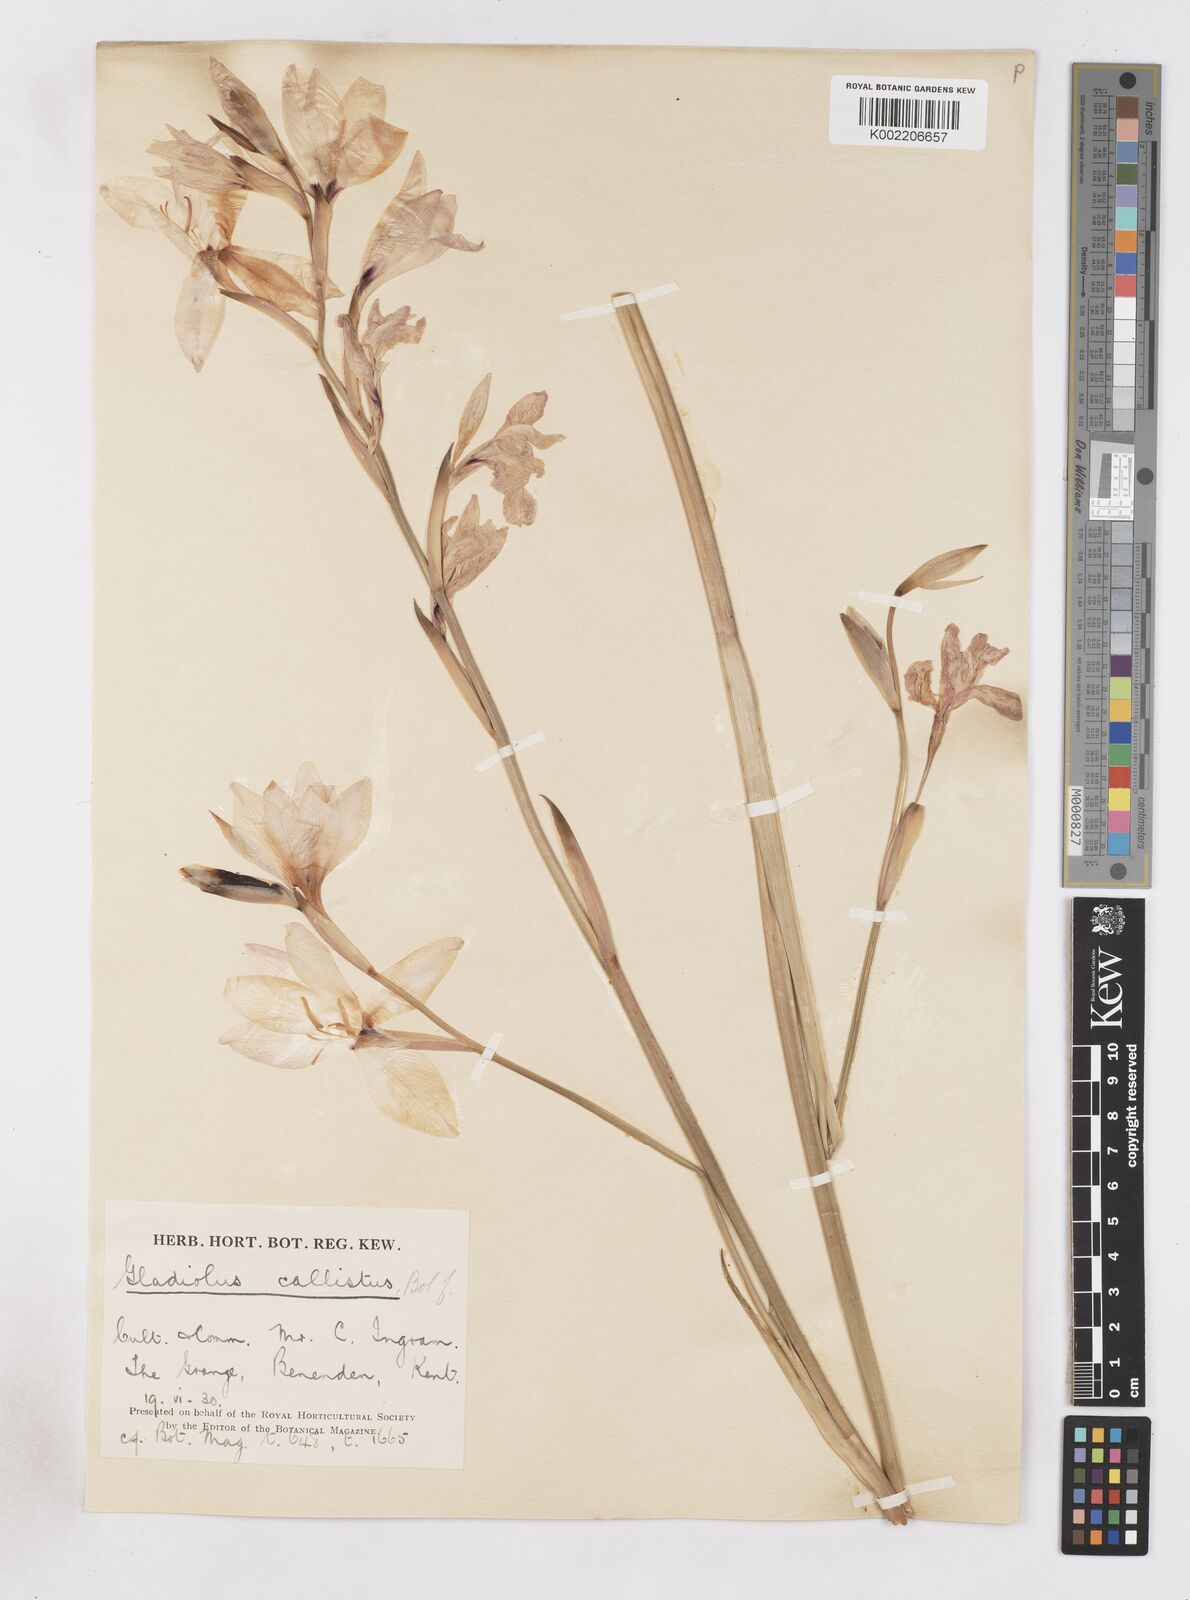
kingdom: Plantae
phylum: Tracheophyta
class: Liliopsida
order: Asparagales
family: Iridaceae
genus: Gladiolus
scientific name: Gladiolus carneus
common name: Painted-lady
